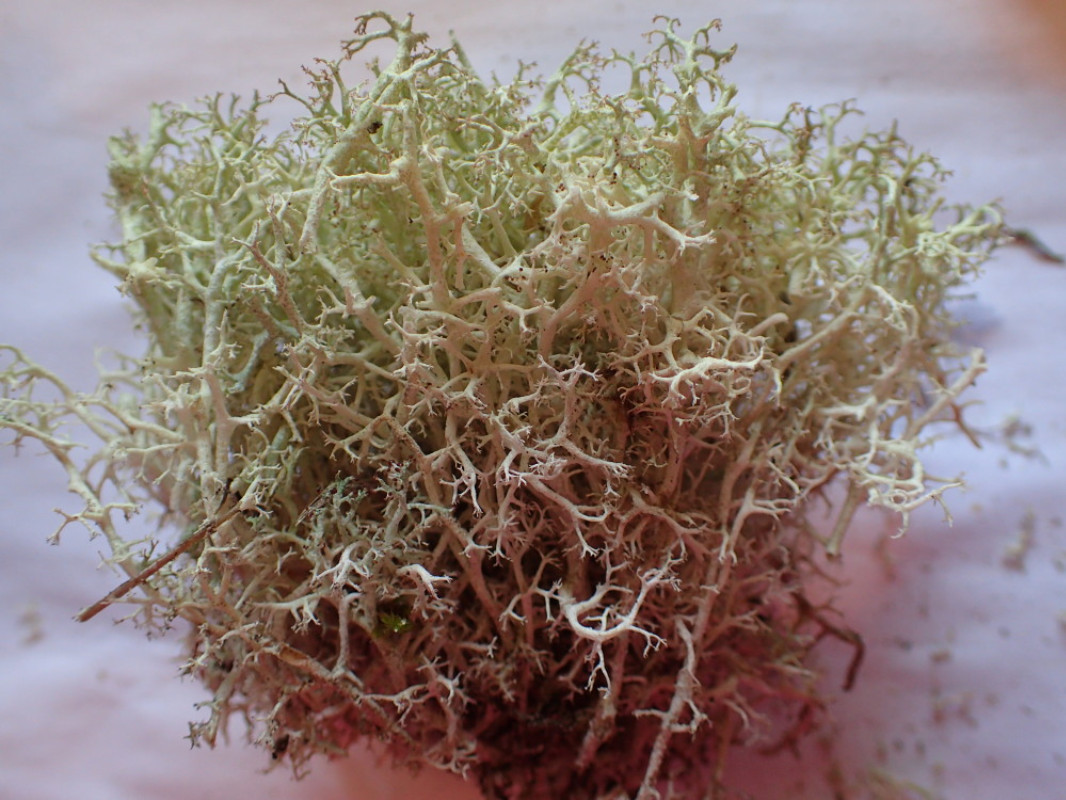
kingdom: Fungi
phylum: Ascomycota
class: Lecanoromycetes
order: Lecanorales
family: Cladoniaceae
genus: Cladonia
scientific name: Cladonia portentosa
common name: hede-rensdyrlav
